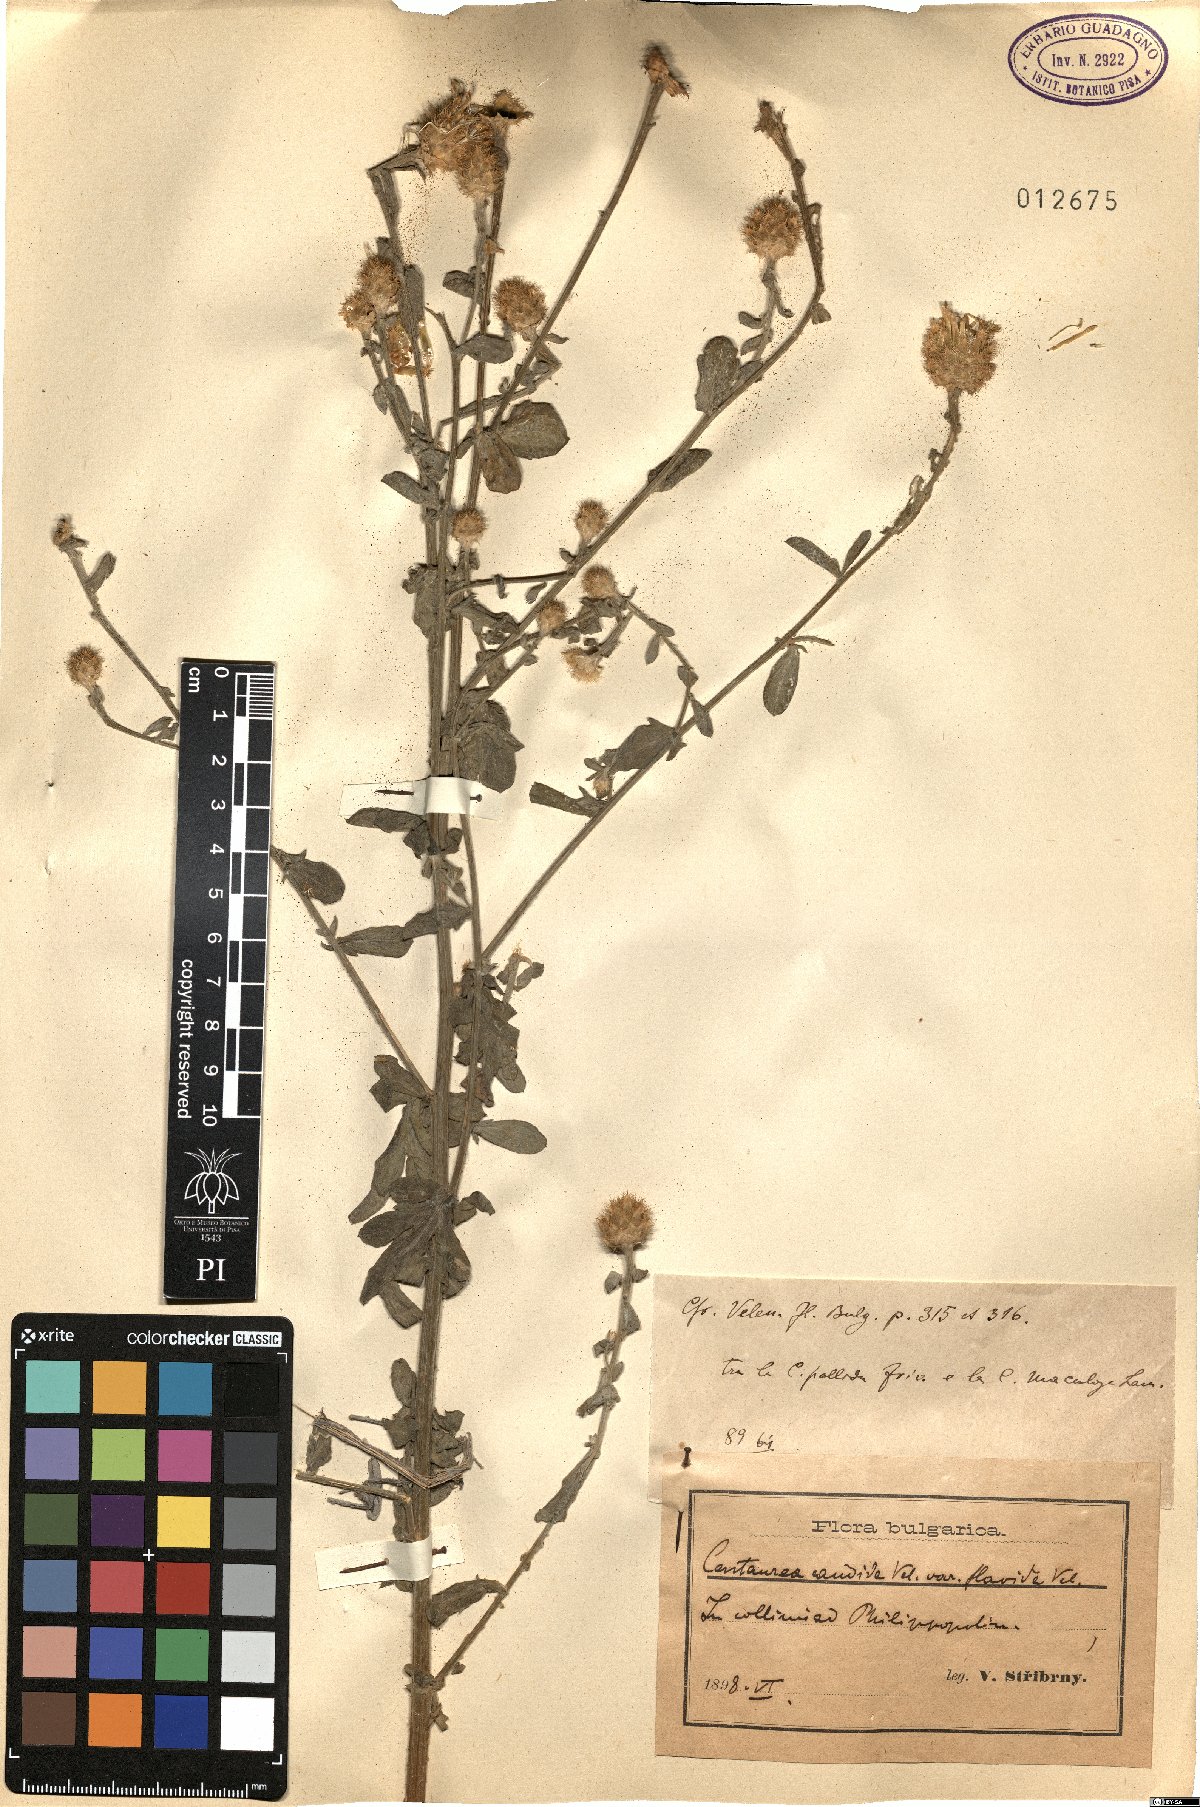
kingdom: Plantae
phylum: Tracheophyta
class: Magnoliopsida
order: Asterales
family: Asteraceae
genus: Centaurea
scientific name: Centaurea affinis
